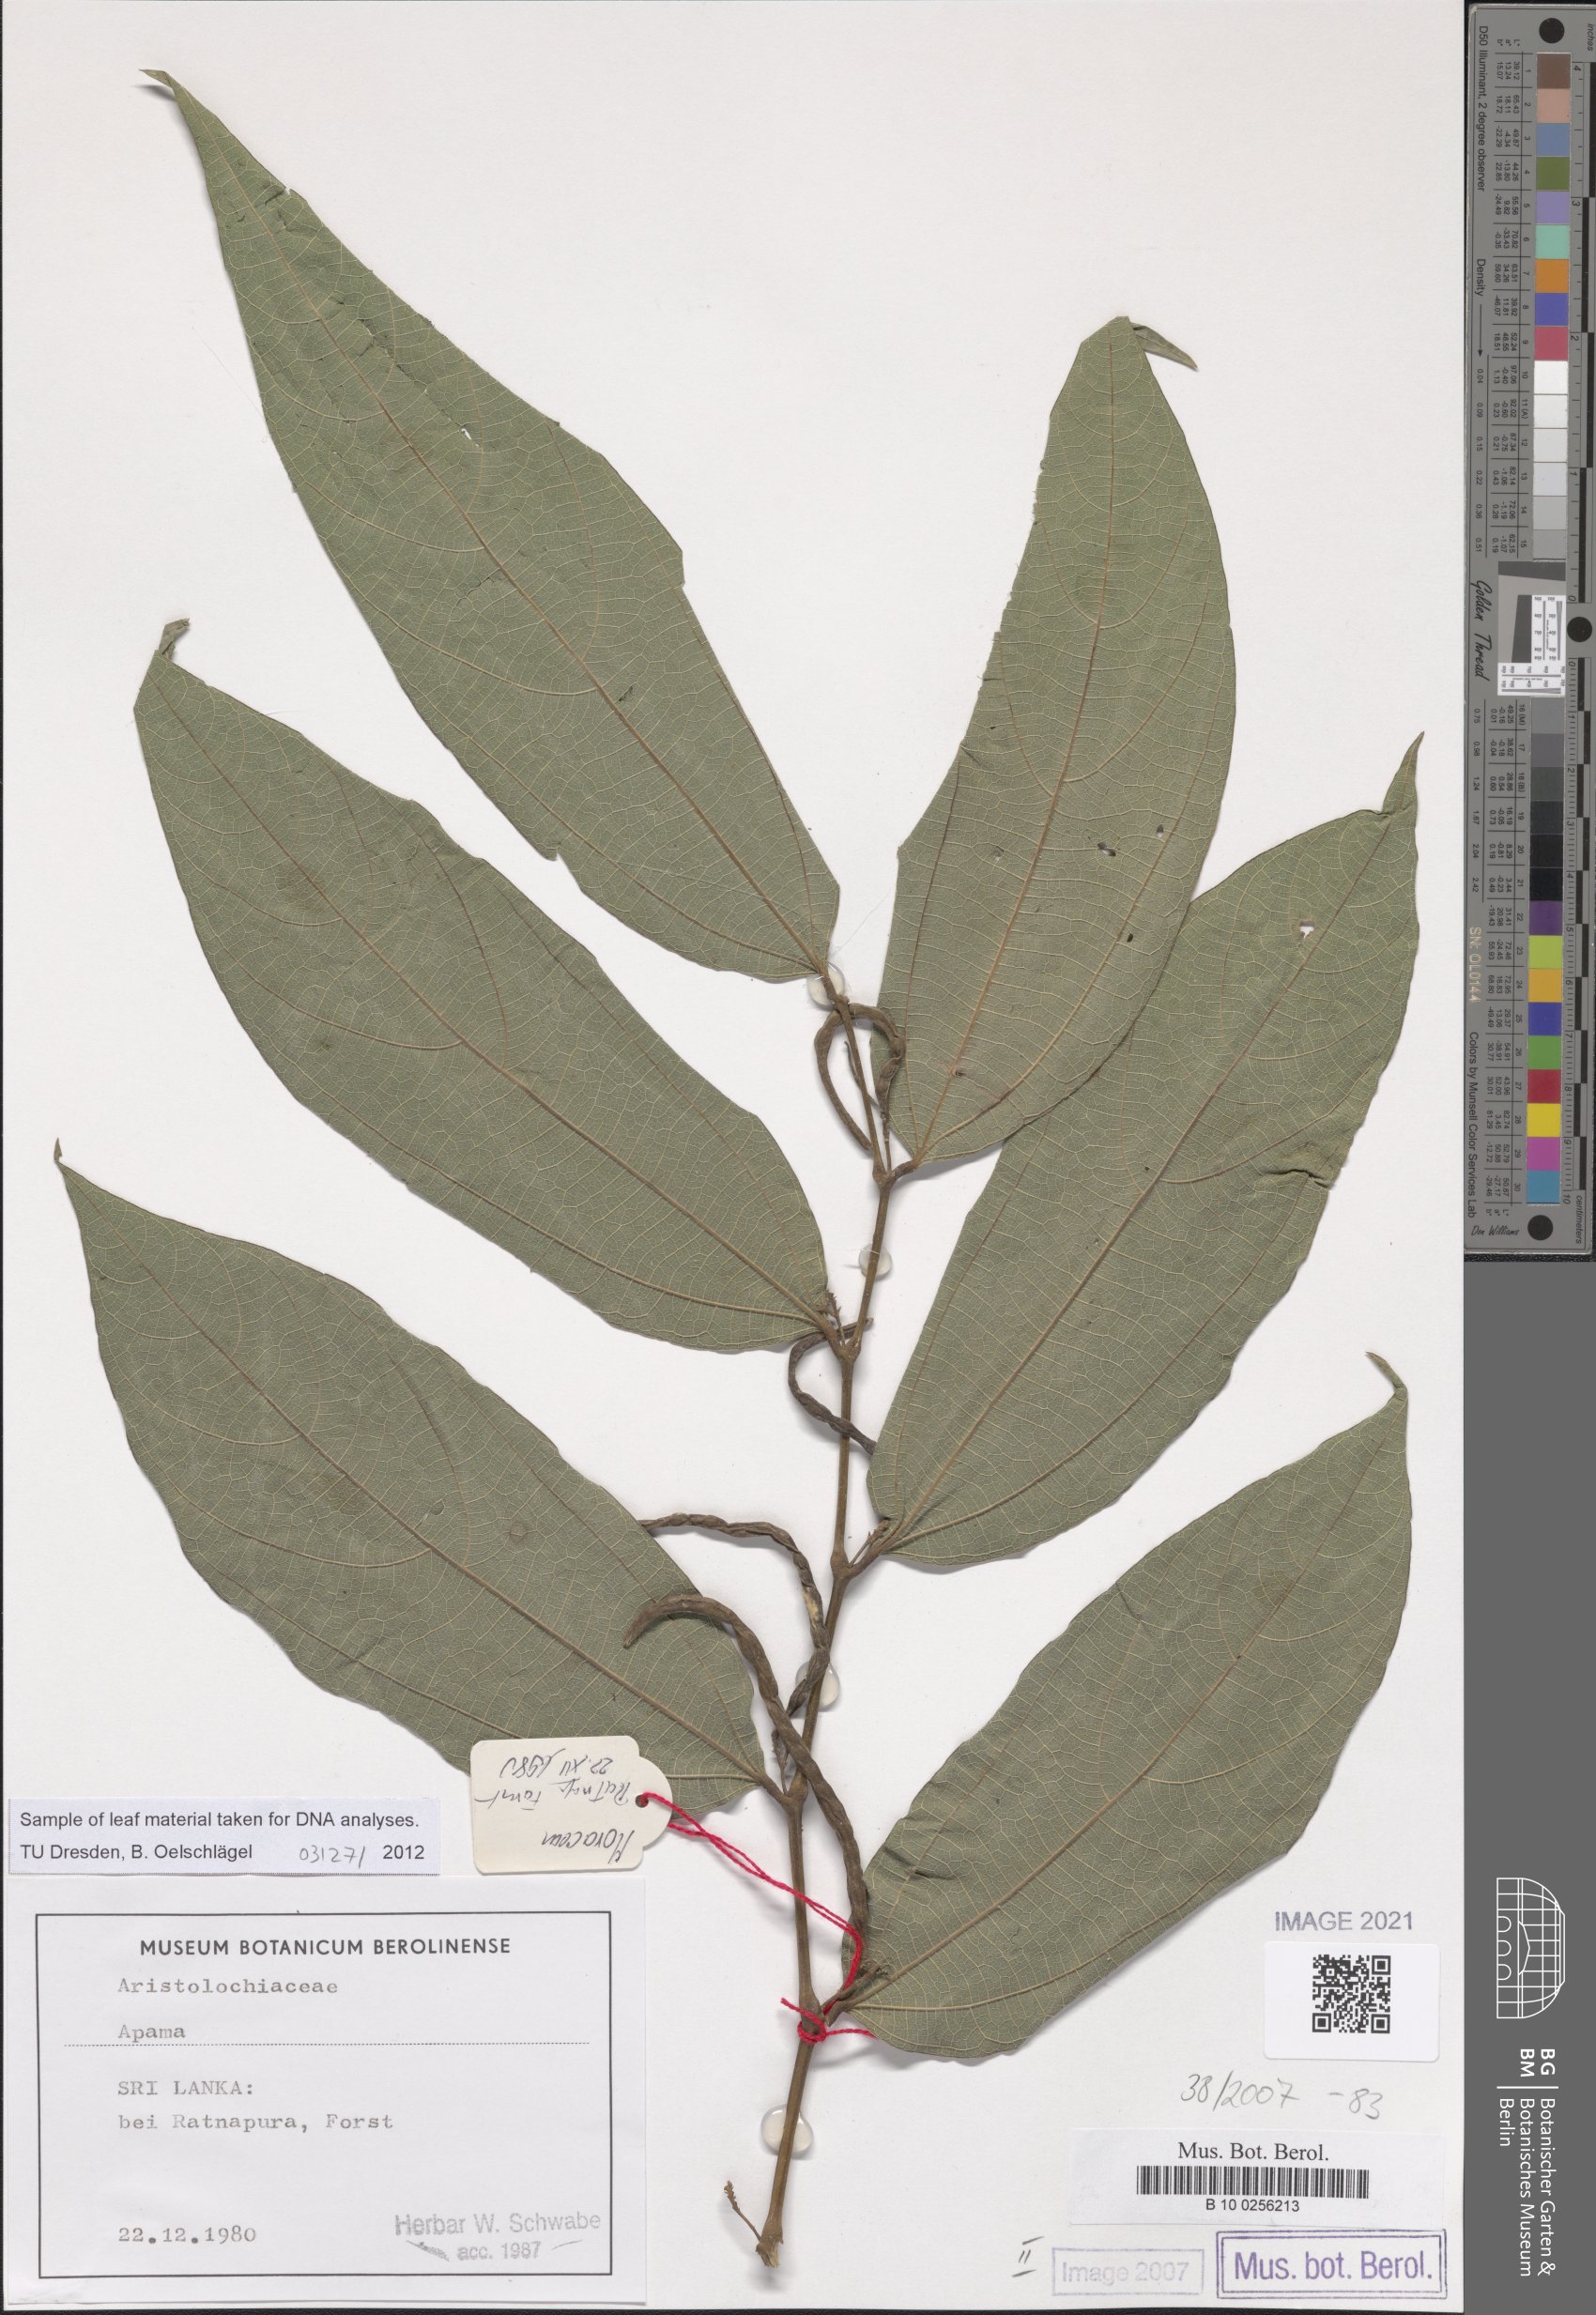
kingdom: Plantae
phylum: Tracheophyta
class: Magnoliopsida
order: Piperales
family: Aristolochiaceae
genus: Thottea
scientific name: Thottea
